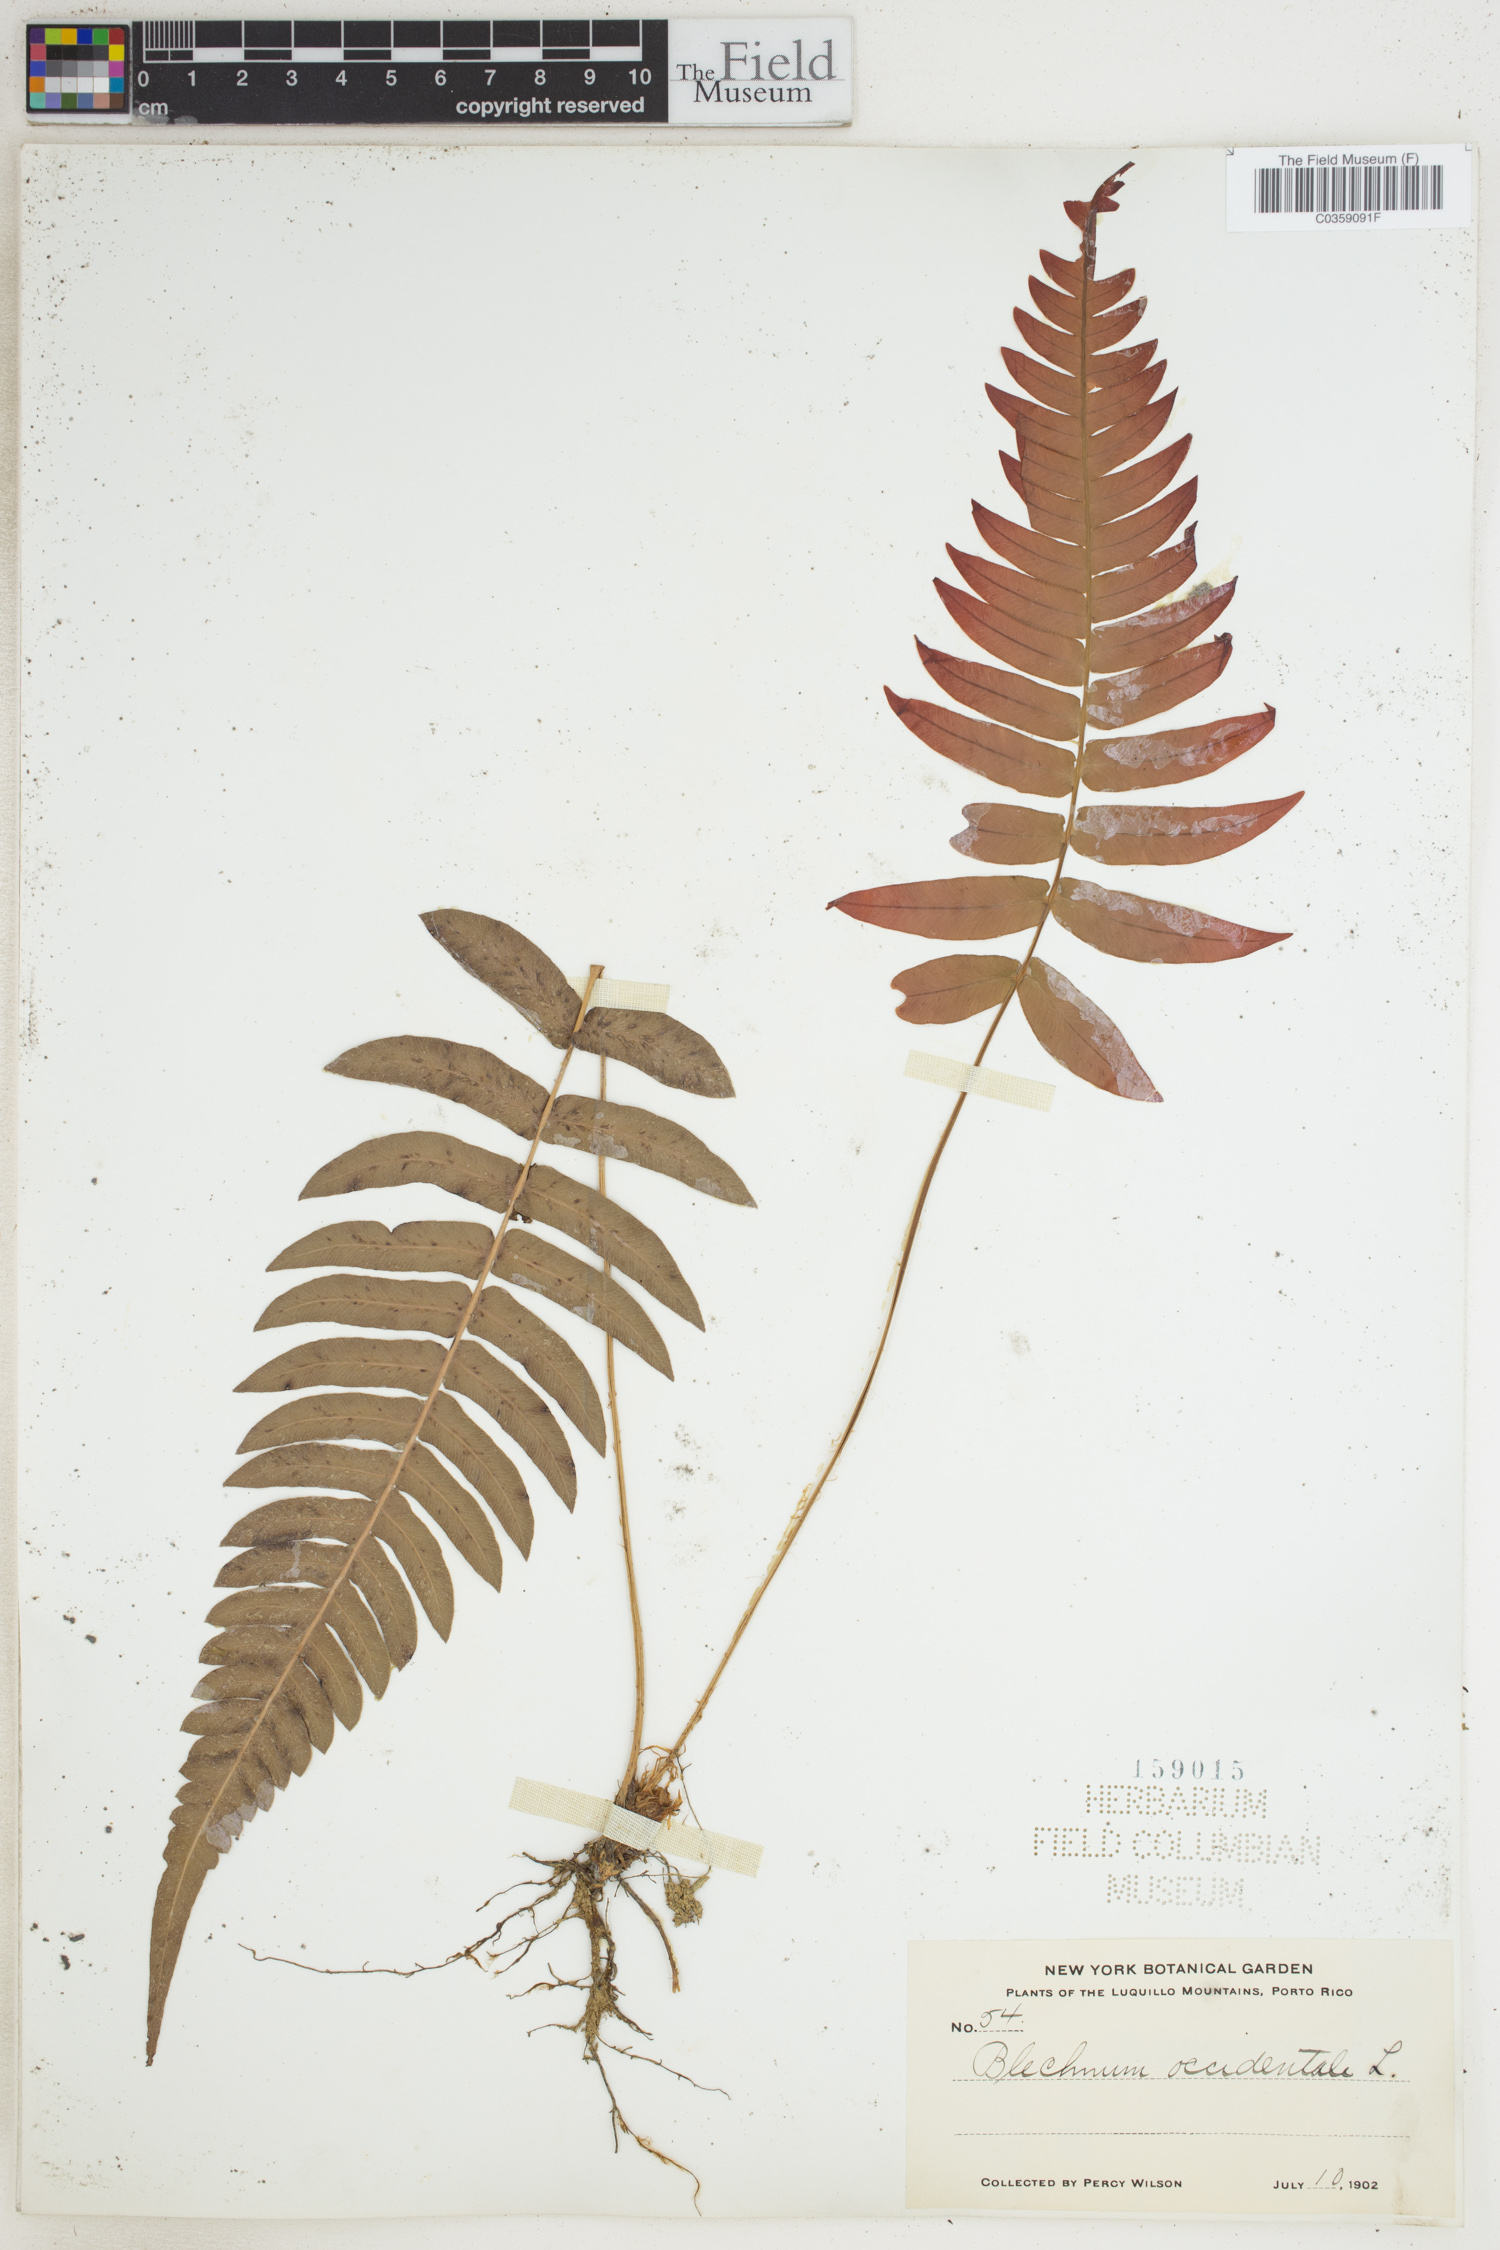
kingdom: Plantae
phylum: Tracheophyta
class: Polypodiopsida
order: Polypodiales
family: Blechnaceae
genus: Blechnum
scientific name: Blechnum occidentale
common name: Hammock fern
